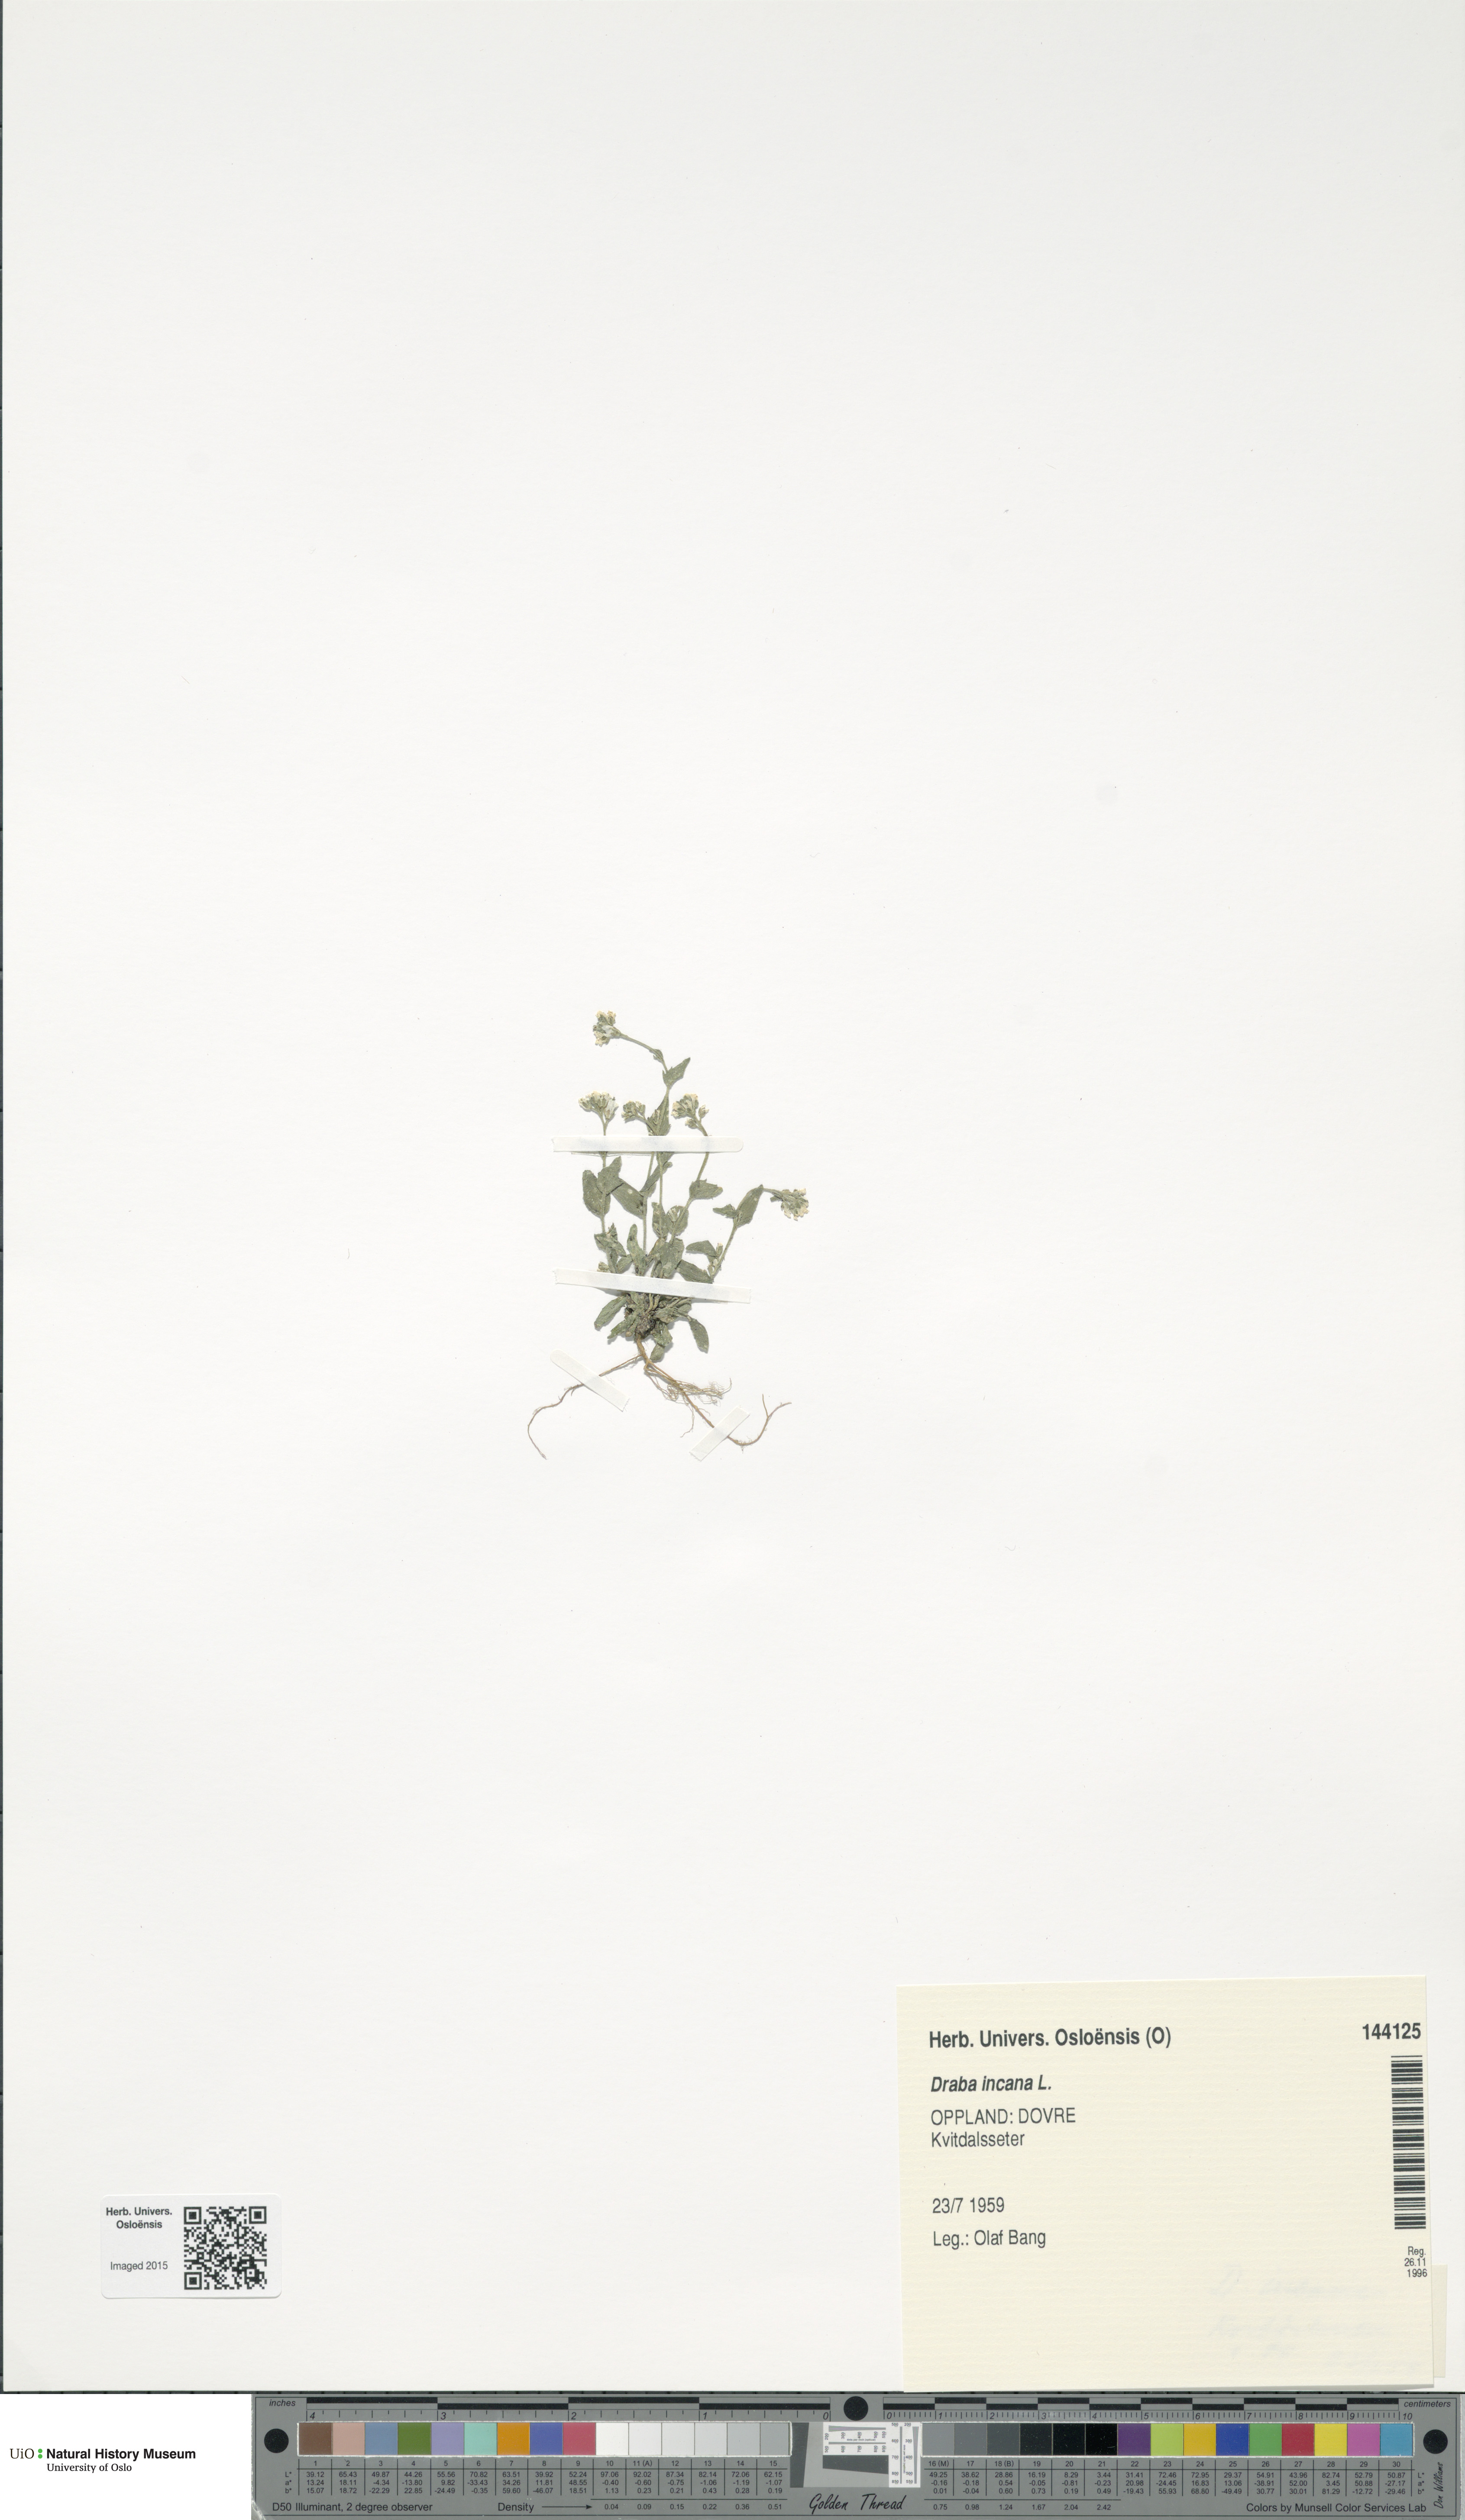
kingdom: Plantae
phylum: Tracheophyta
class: Magnoliopsida
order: Brassicales
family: Brassicaceae
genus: Draba
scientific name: Draba incana
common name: Hoary whitlow-grass
